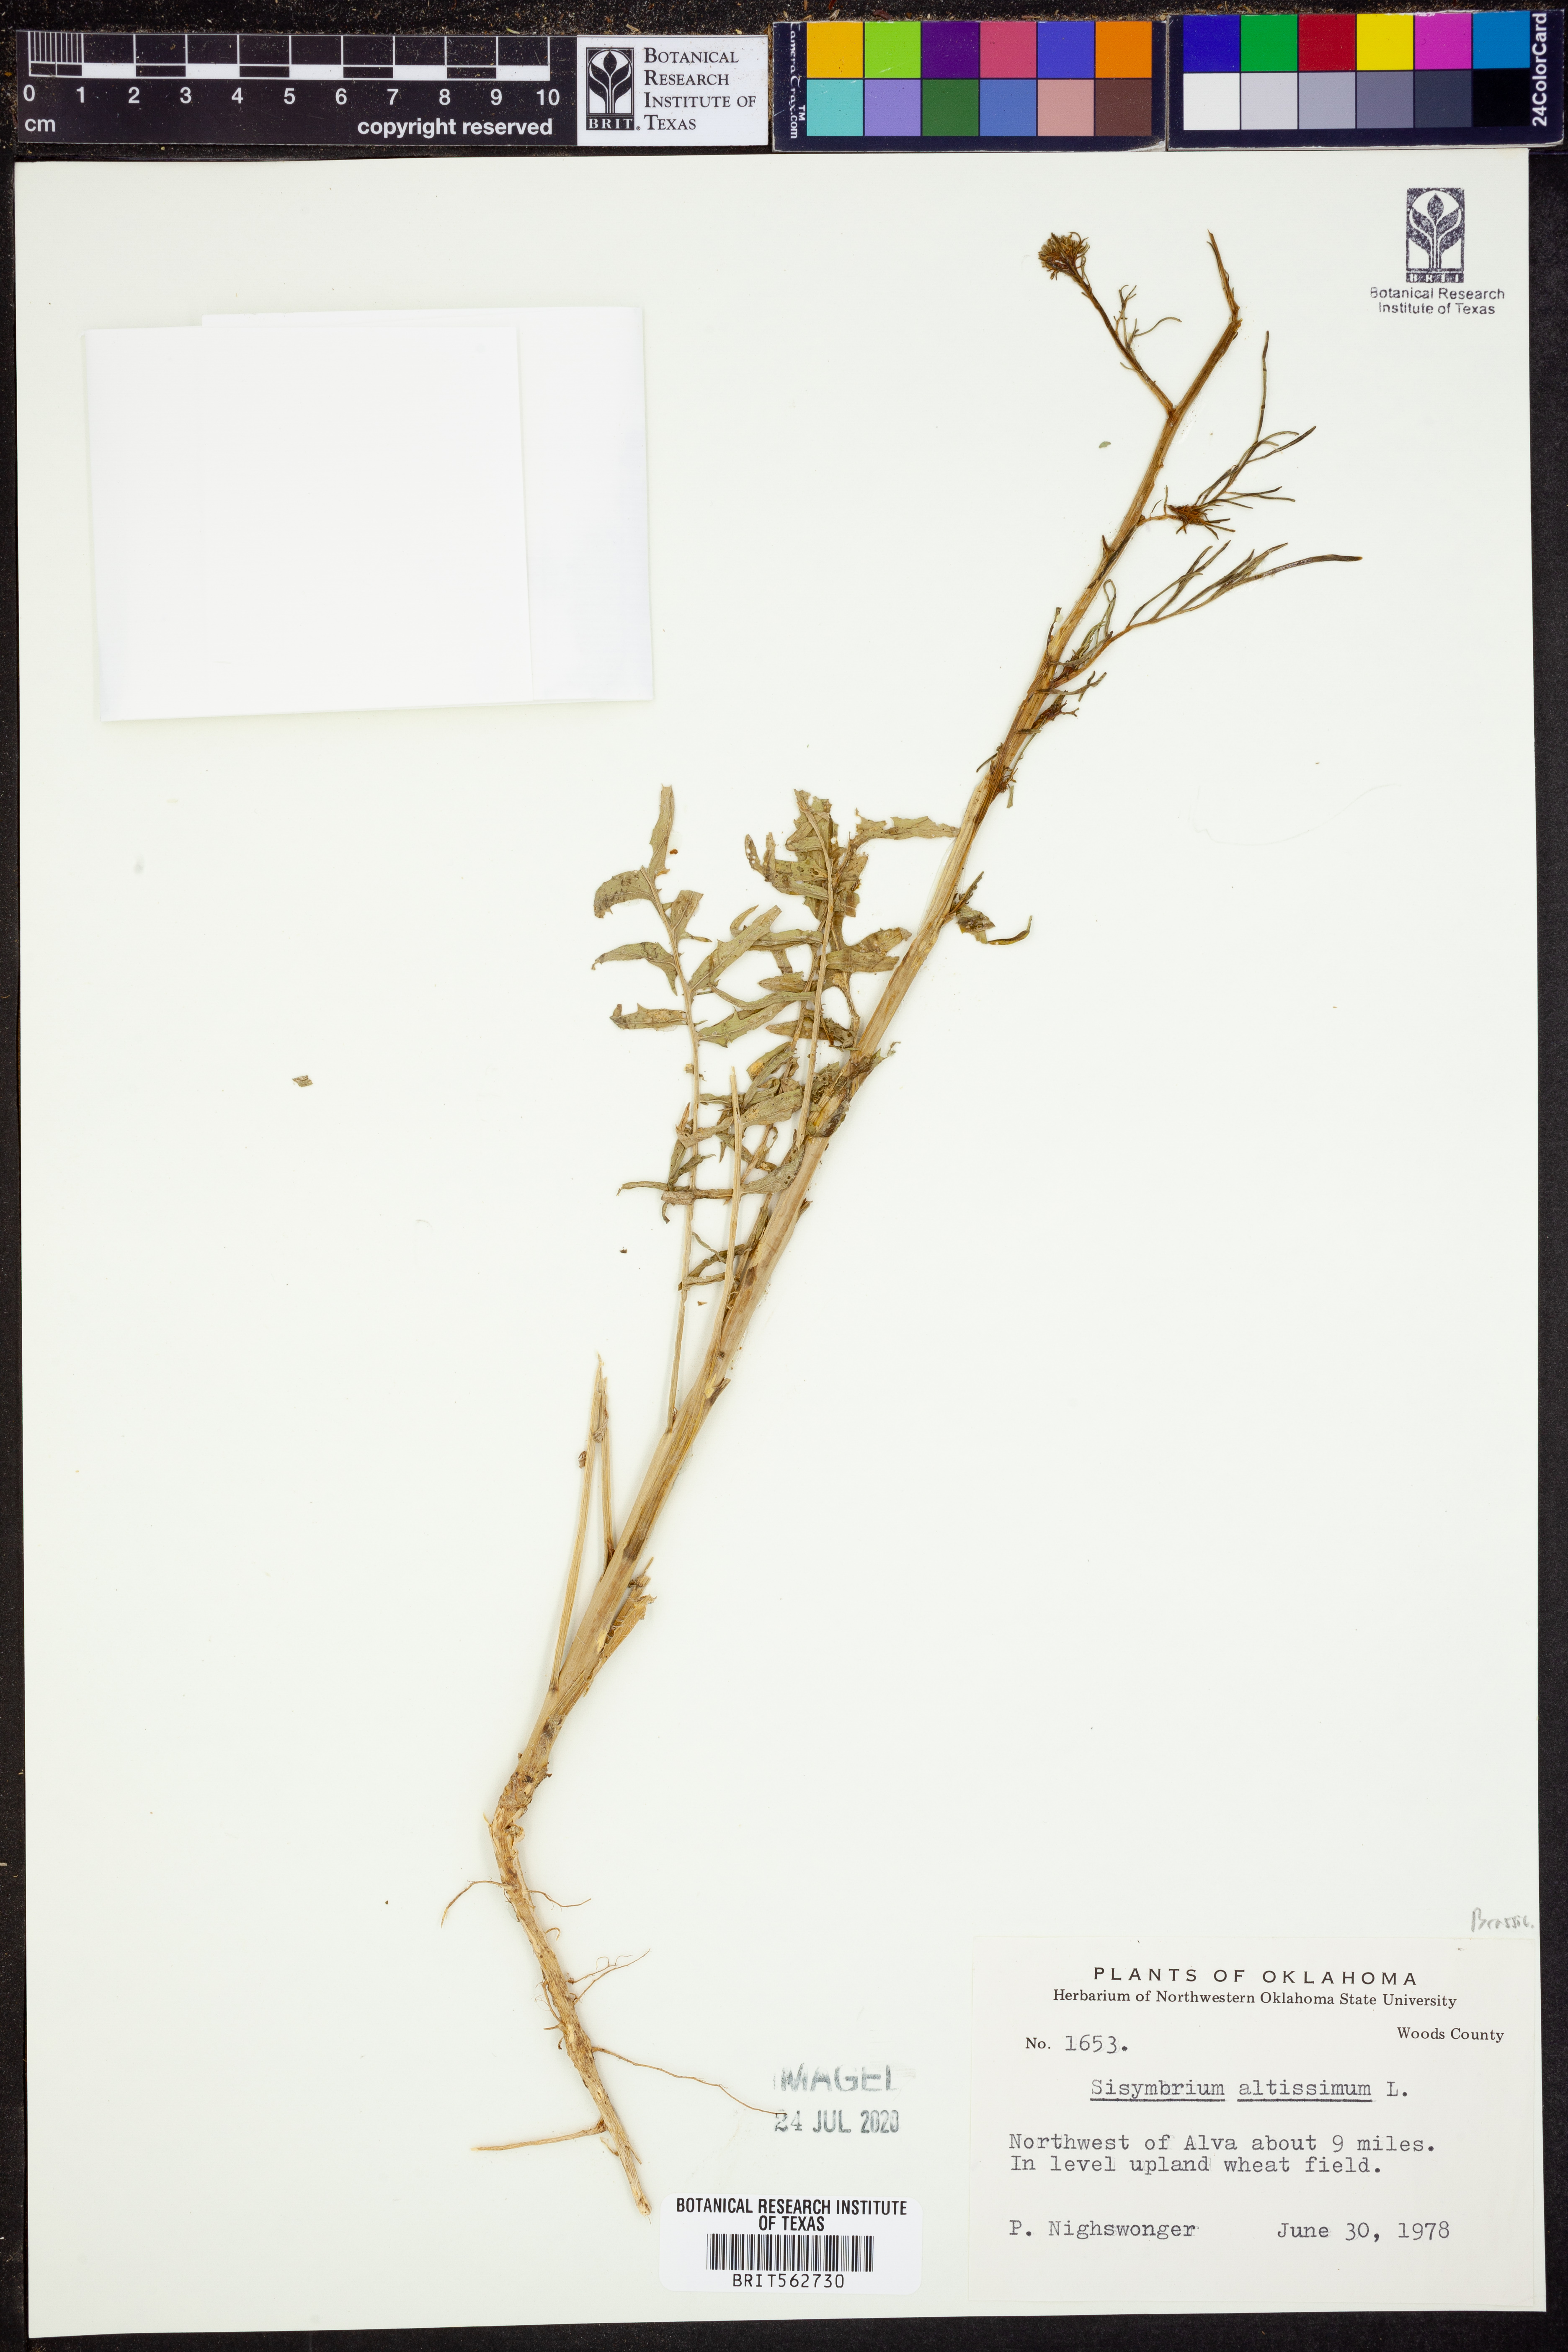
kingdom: Plantae
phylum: Tracheophyta
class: Magnoliopsida
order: Brassicales
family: Brassicaceae
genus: Sisymbrium
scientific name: Sisymbrium altissimum
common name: Tall rocket
